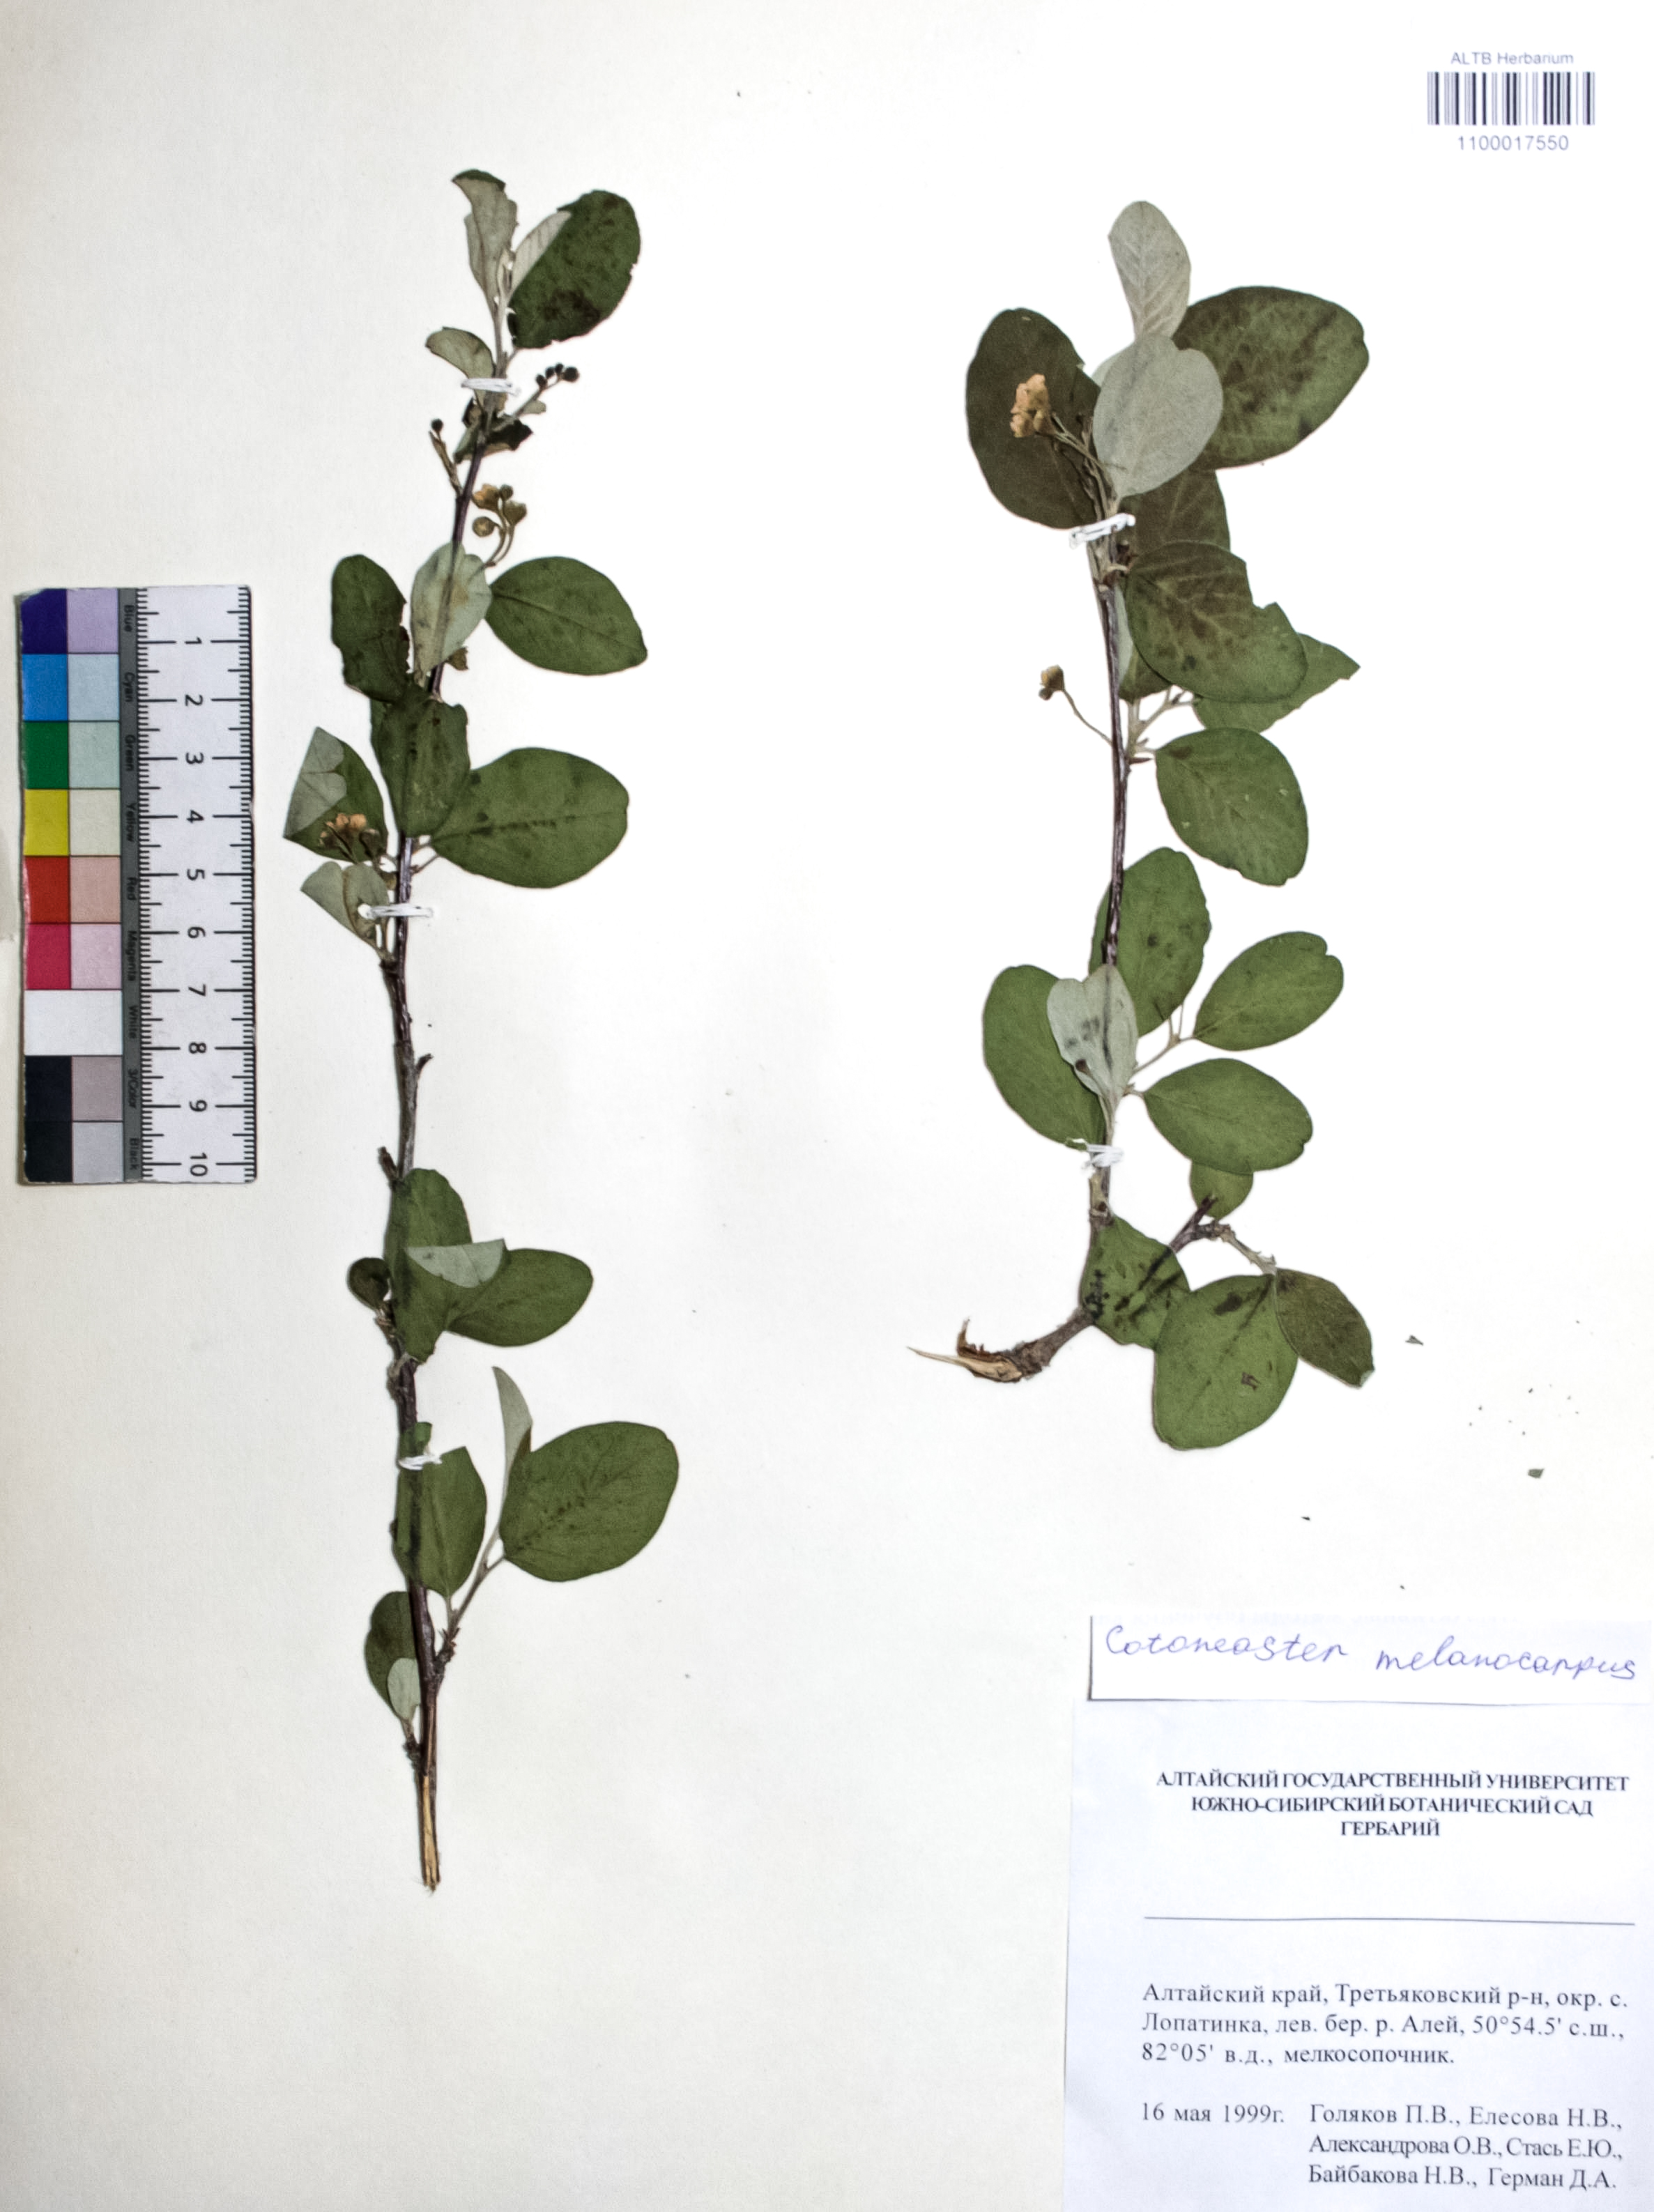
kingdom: Plantae
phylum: Tracheophyta
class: Magnoliopsida
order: Rosales
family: Rosaceae
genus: Cotoneaster
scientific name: Cotoneaster niger
